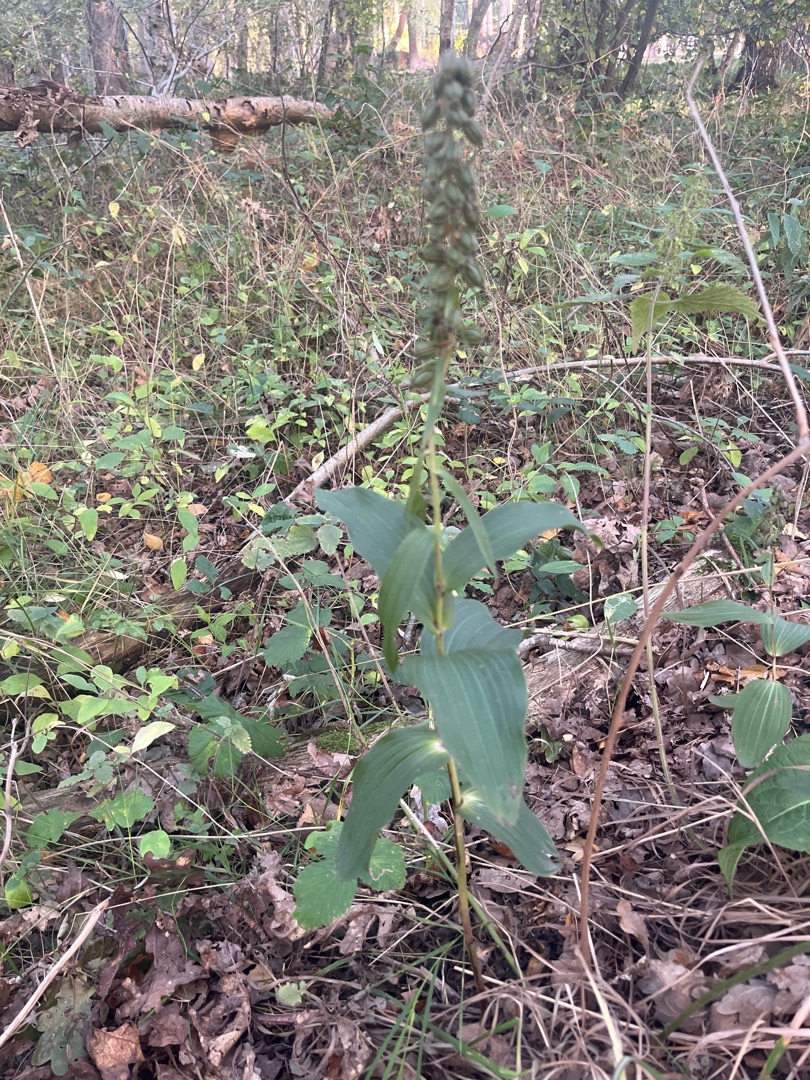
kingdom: Plantae
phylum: Tracheophyta
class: Liliopsida
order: Asparagales
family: Orchidaceae
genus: Epipactis
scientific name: Epipactis helleborine
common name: Skov-hullæbe
